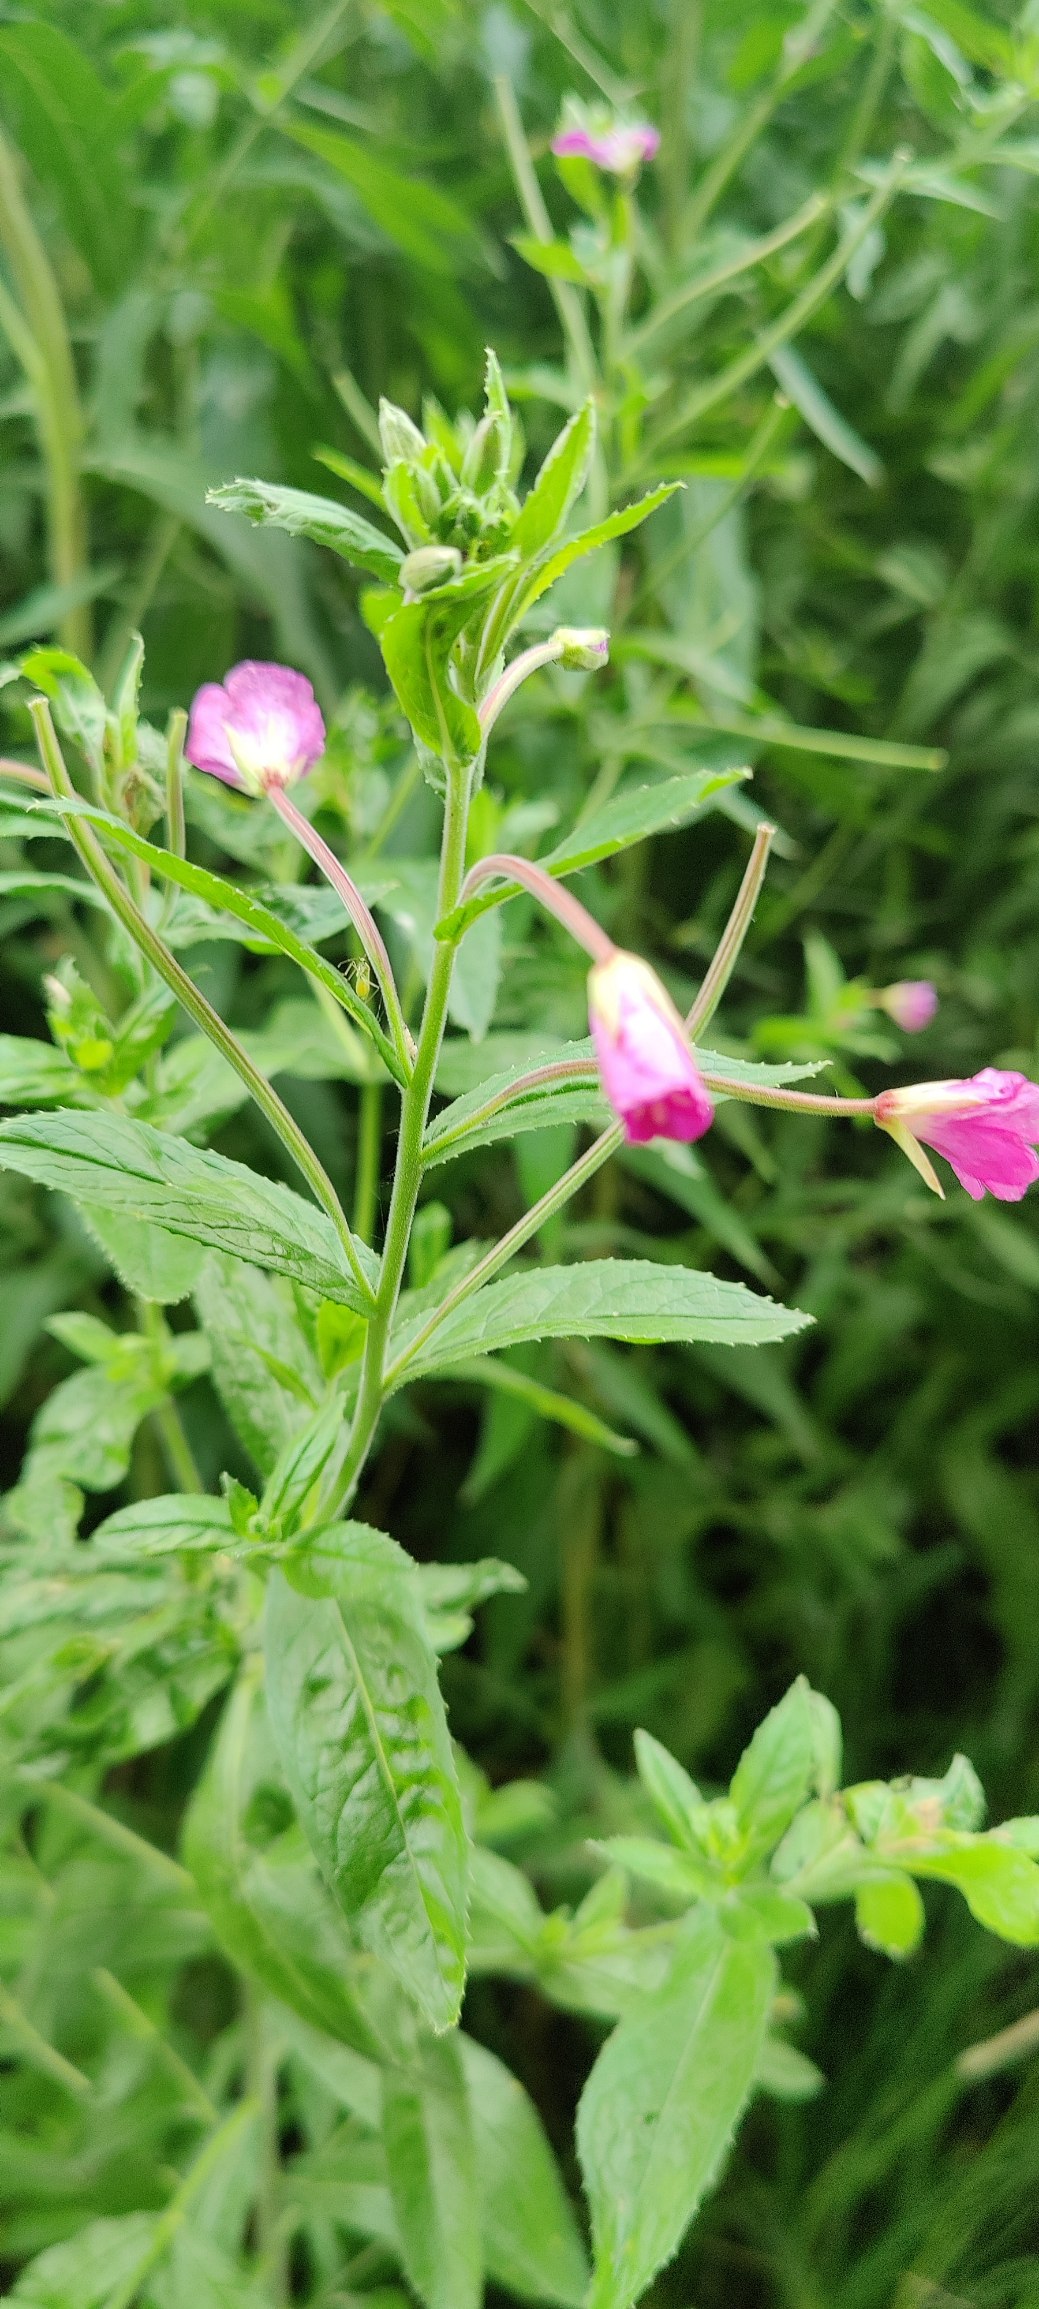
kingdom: Plantae
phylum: Tracheophyta
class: Magnoliopsida
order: Myrtales
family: Onagraceae
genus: Epilobium
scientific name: Epilobium hirsutum
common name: Lådden dueurt
